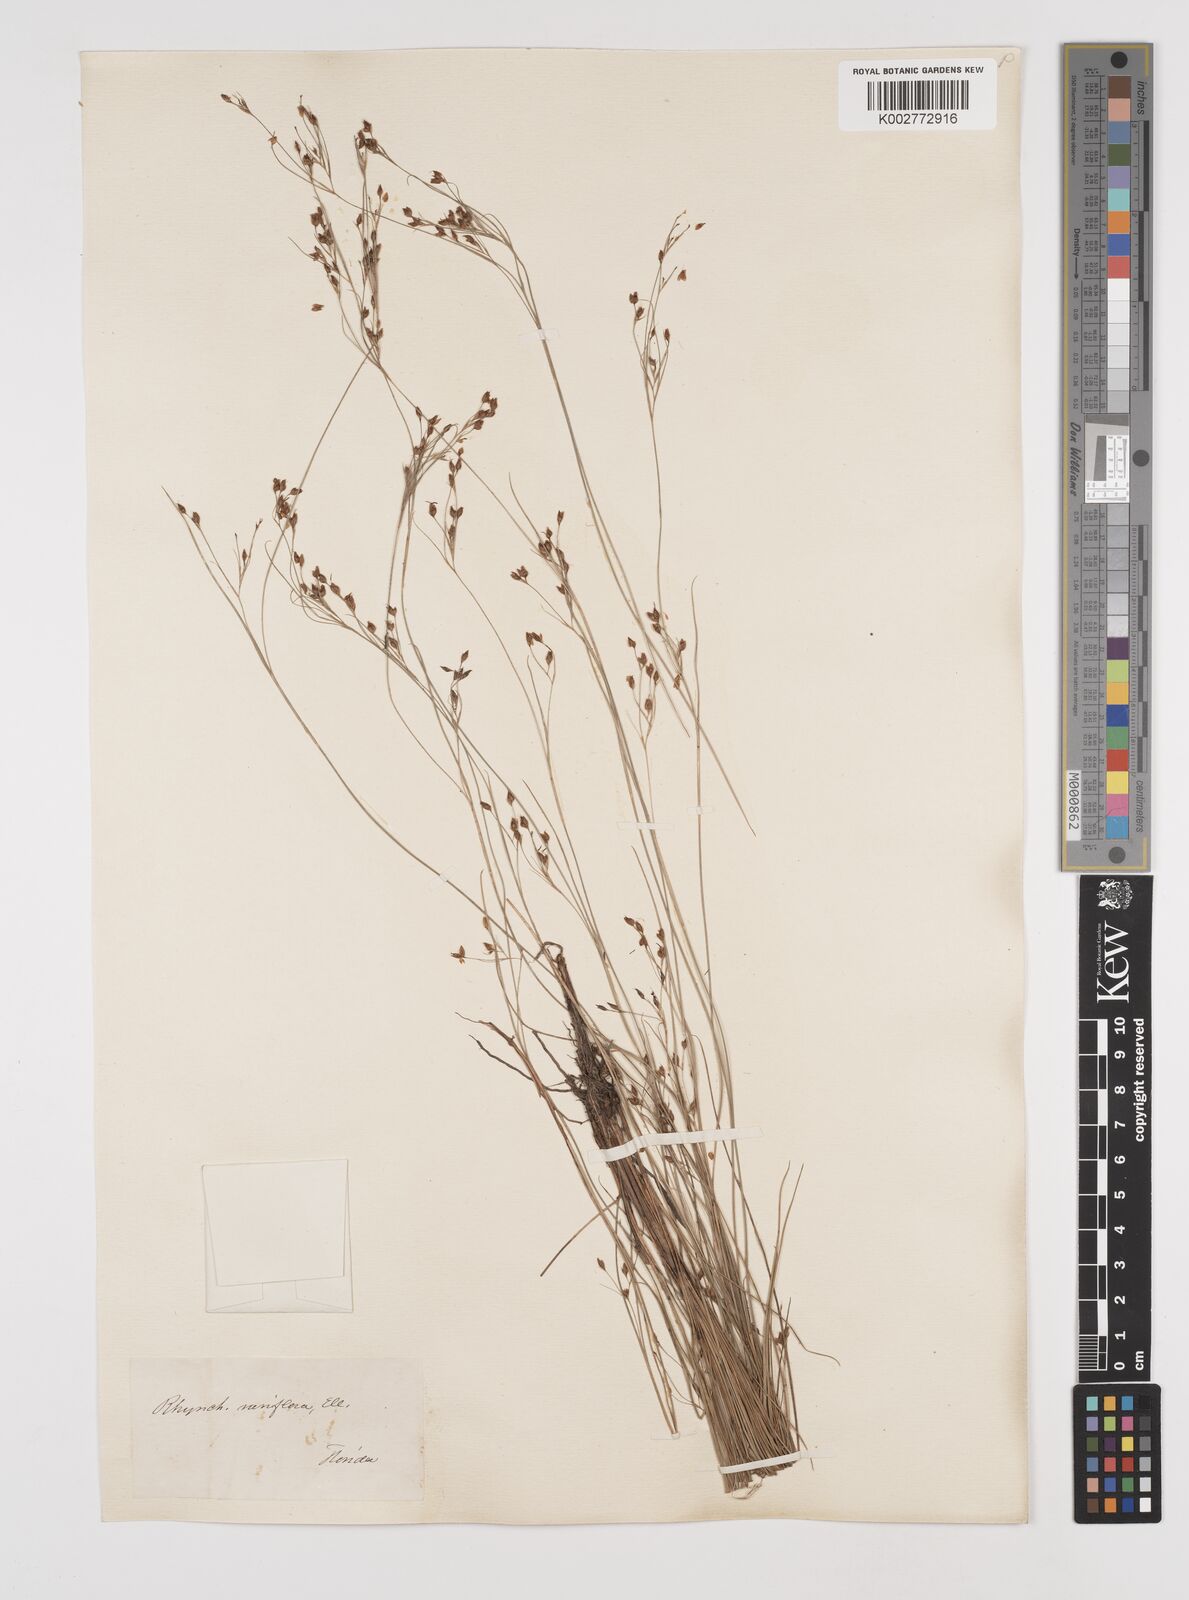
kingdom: Plantae
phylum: Tracheophyta
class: Liliopsida
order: Poales
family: Cyperaceae
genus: Rhynchospora
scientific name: Rhynchospora rariflora
